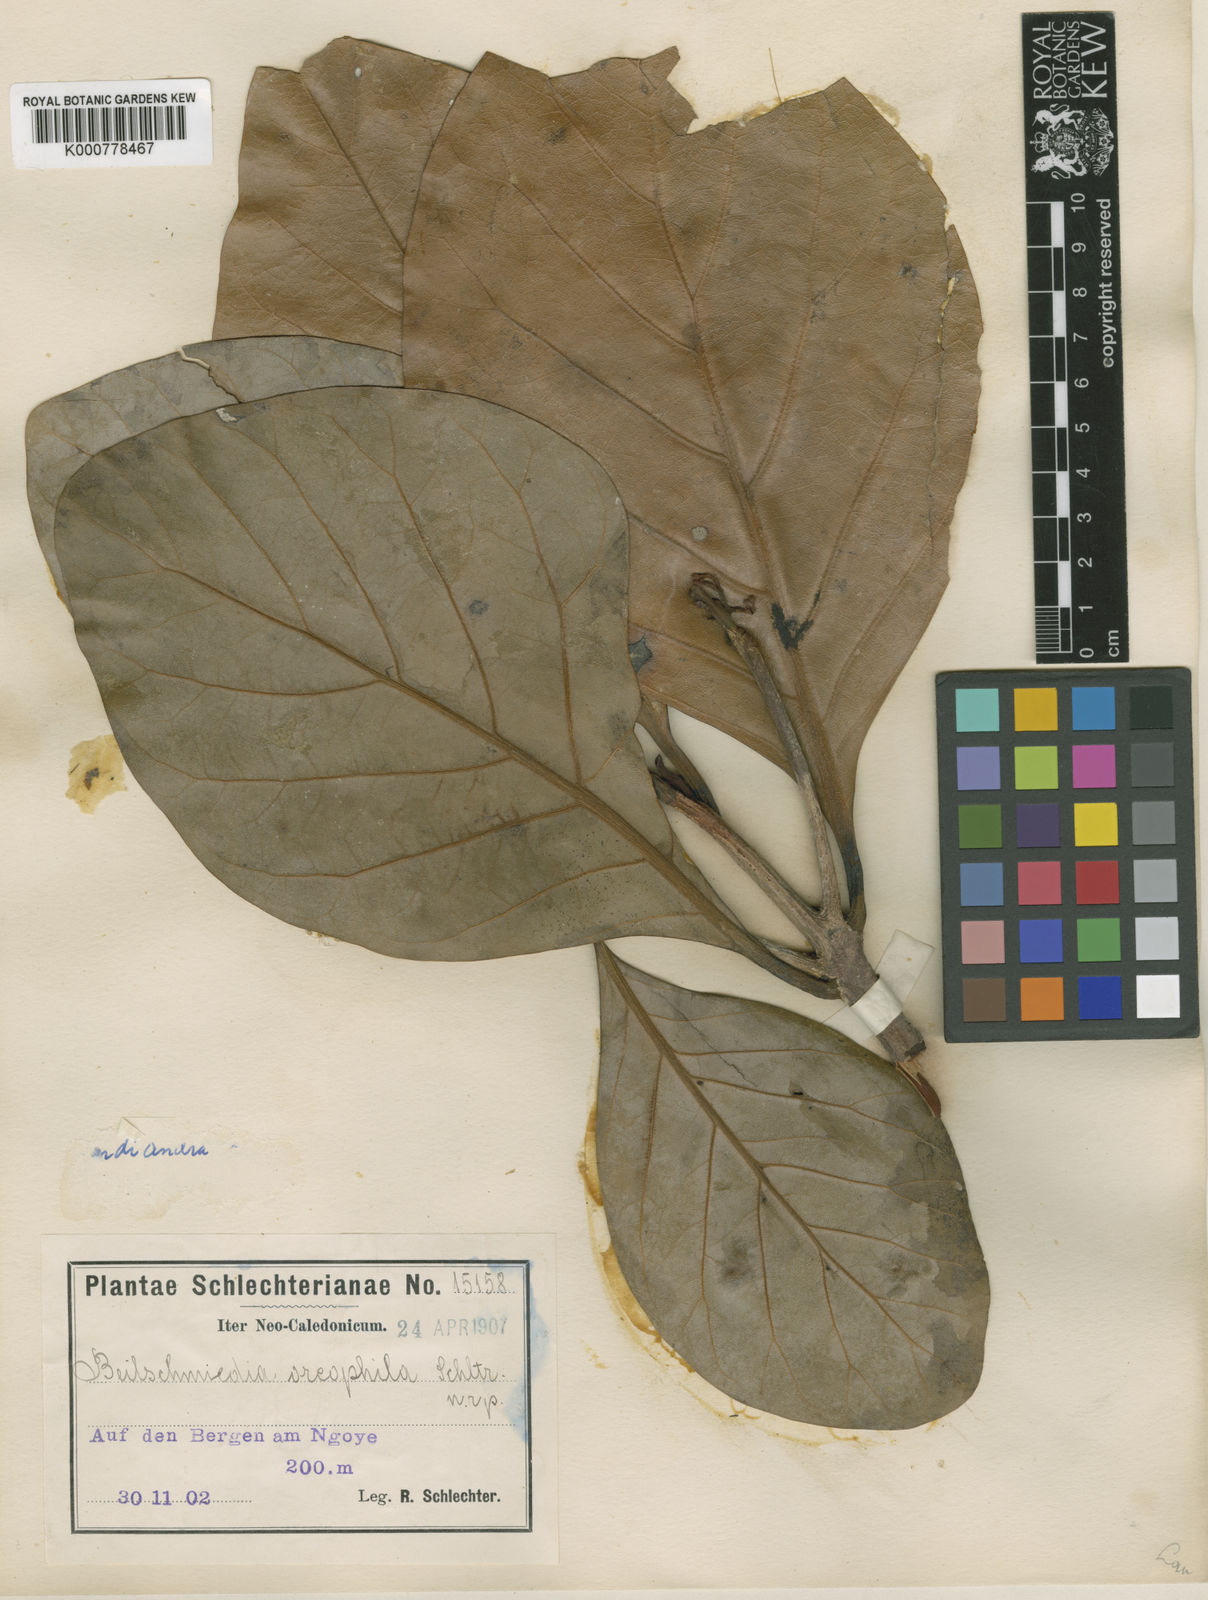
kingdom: Plantae
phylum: Tracheophyta
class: Magnoliopsida
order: Laurales
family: Lauraceae
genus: Beilschmiedia
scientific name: Beilschmiedia oreophila
